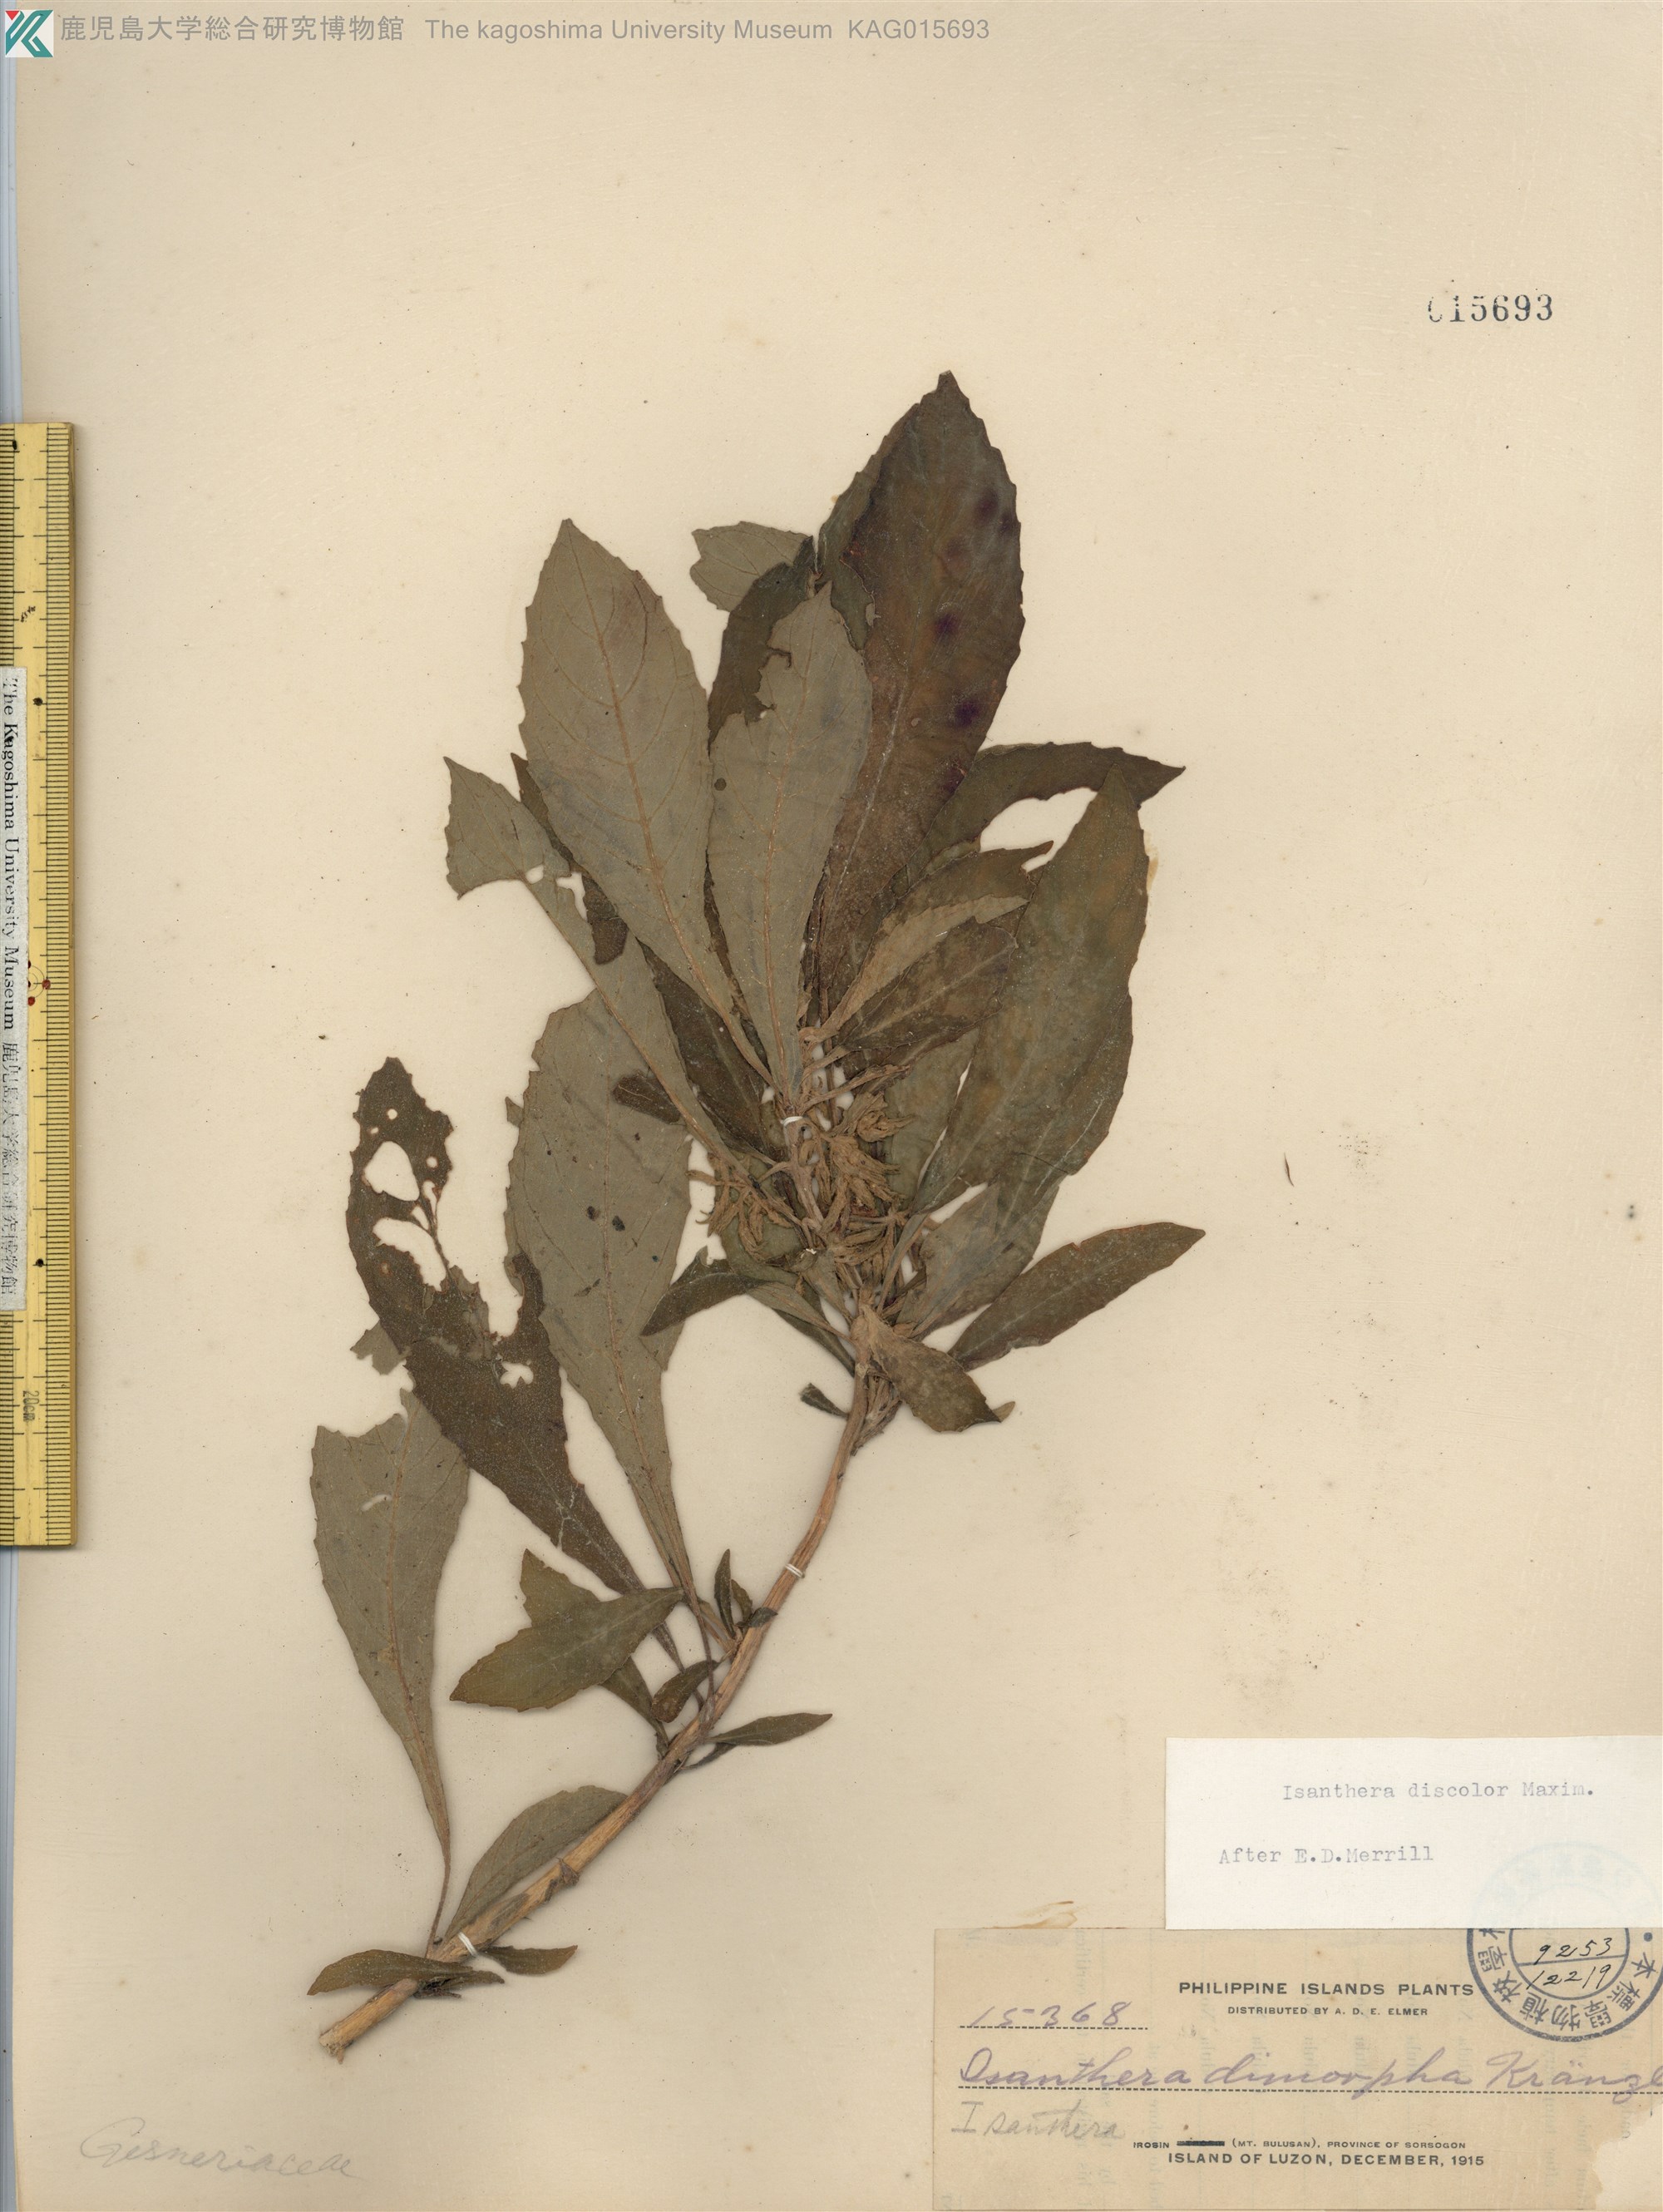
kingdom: Plantae
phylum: Tracheophyta
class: Magnoliopsida
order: Lamiales
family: Gesneriaceae
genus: Rhynchotechum
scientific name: Rhynchotechum discolor
